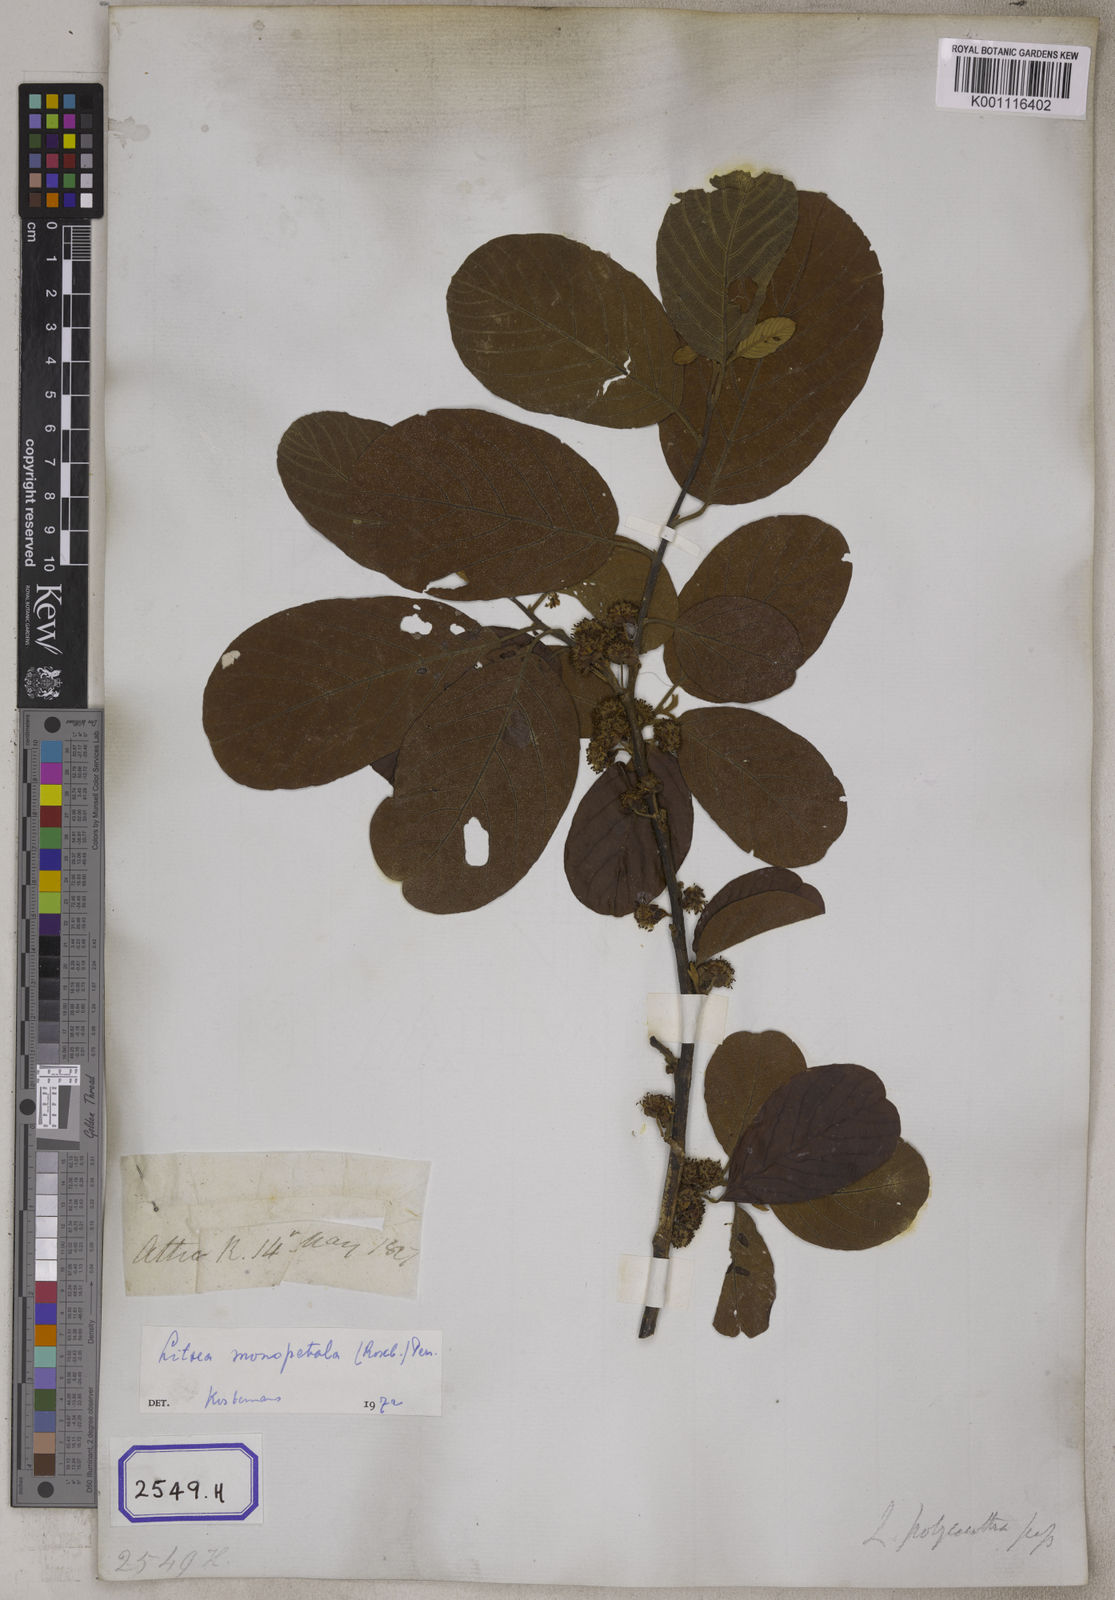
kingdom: Plantae
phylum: Tracheophyta
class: Magnoliopsida
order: Laurales
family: Lauraceae
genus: Litsea
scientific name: Litsea
